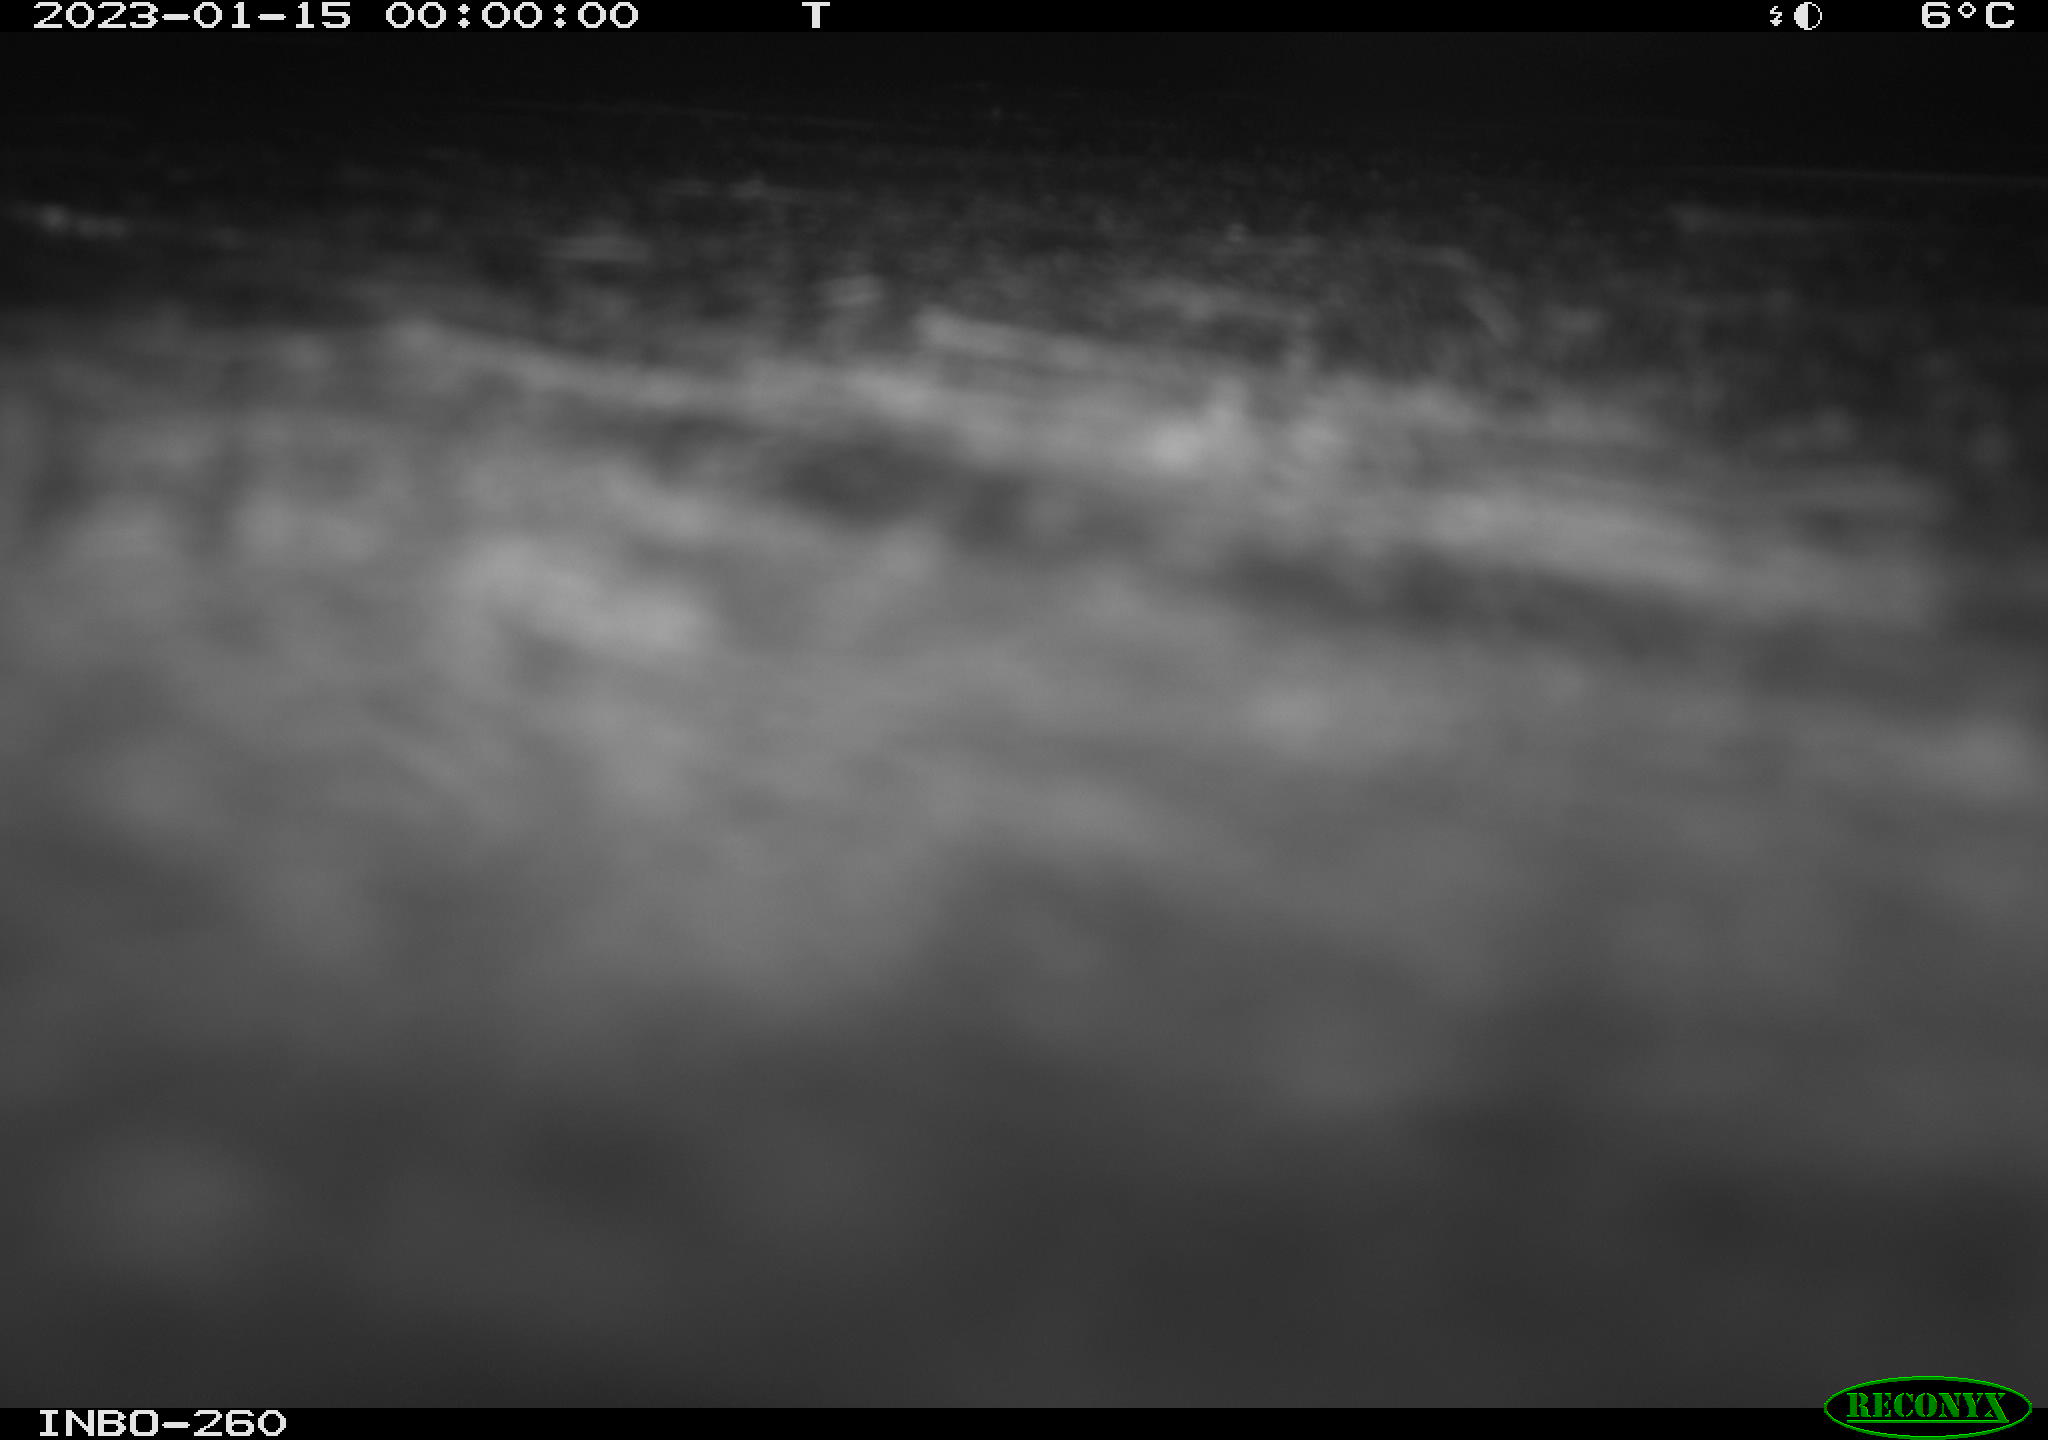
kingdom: Animalia
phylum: Chordata
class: Mammalia
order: Rodentia
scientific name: Rodentia
